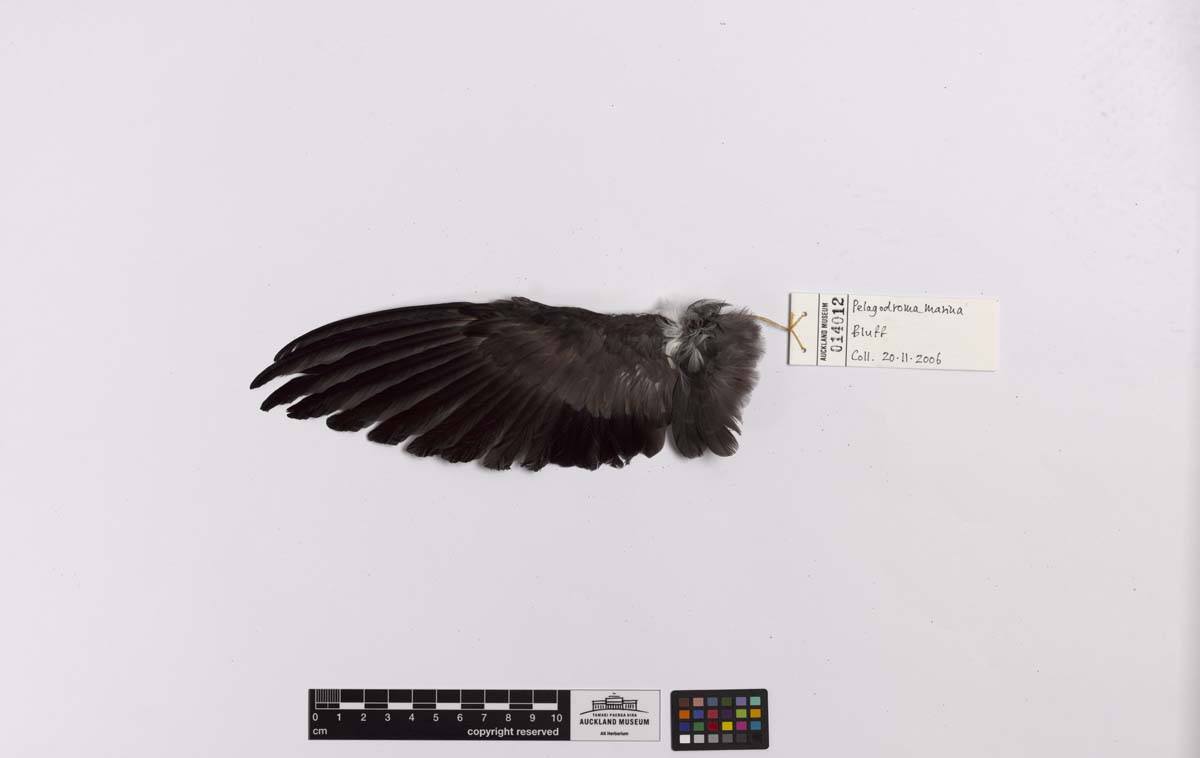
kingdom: Animalia
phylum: Chordata
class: Aves
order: Procellariiformes
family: Hydrobatidae
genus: Pelagodroma
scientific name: Pelagodroma marina
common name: White-faced storm-petrel
